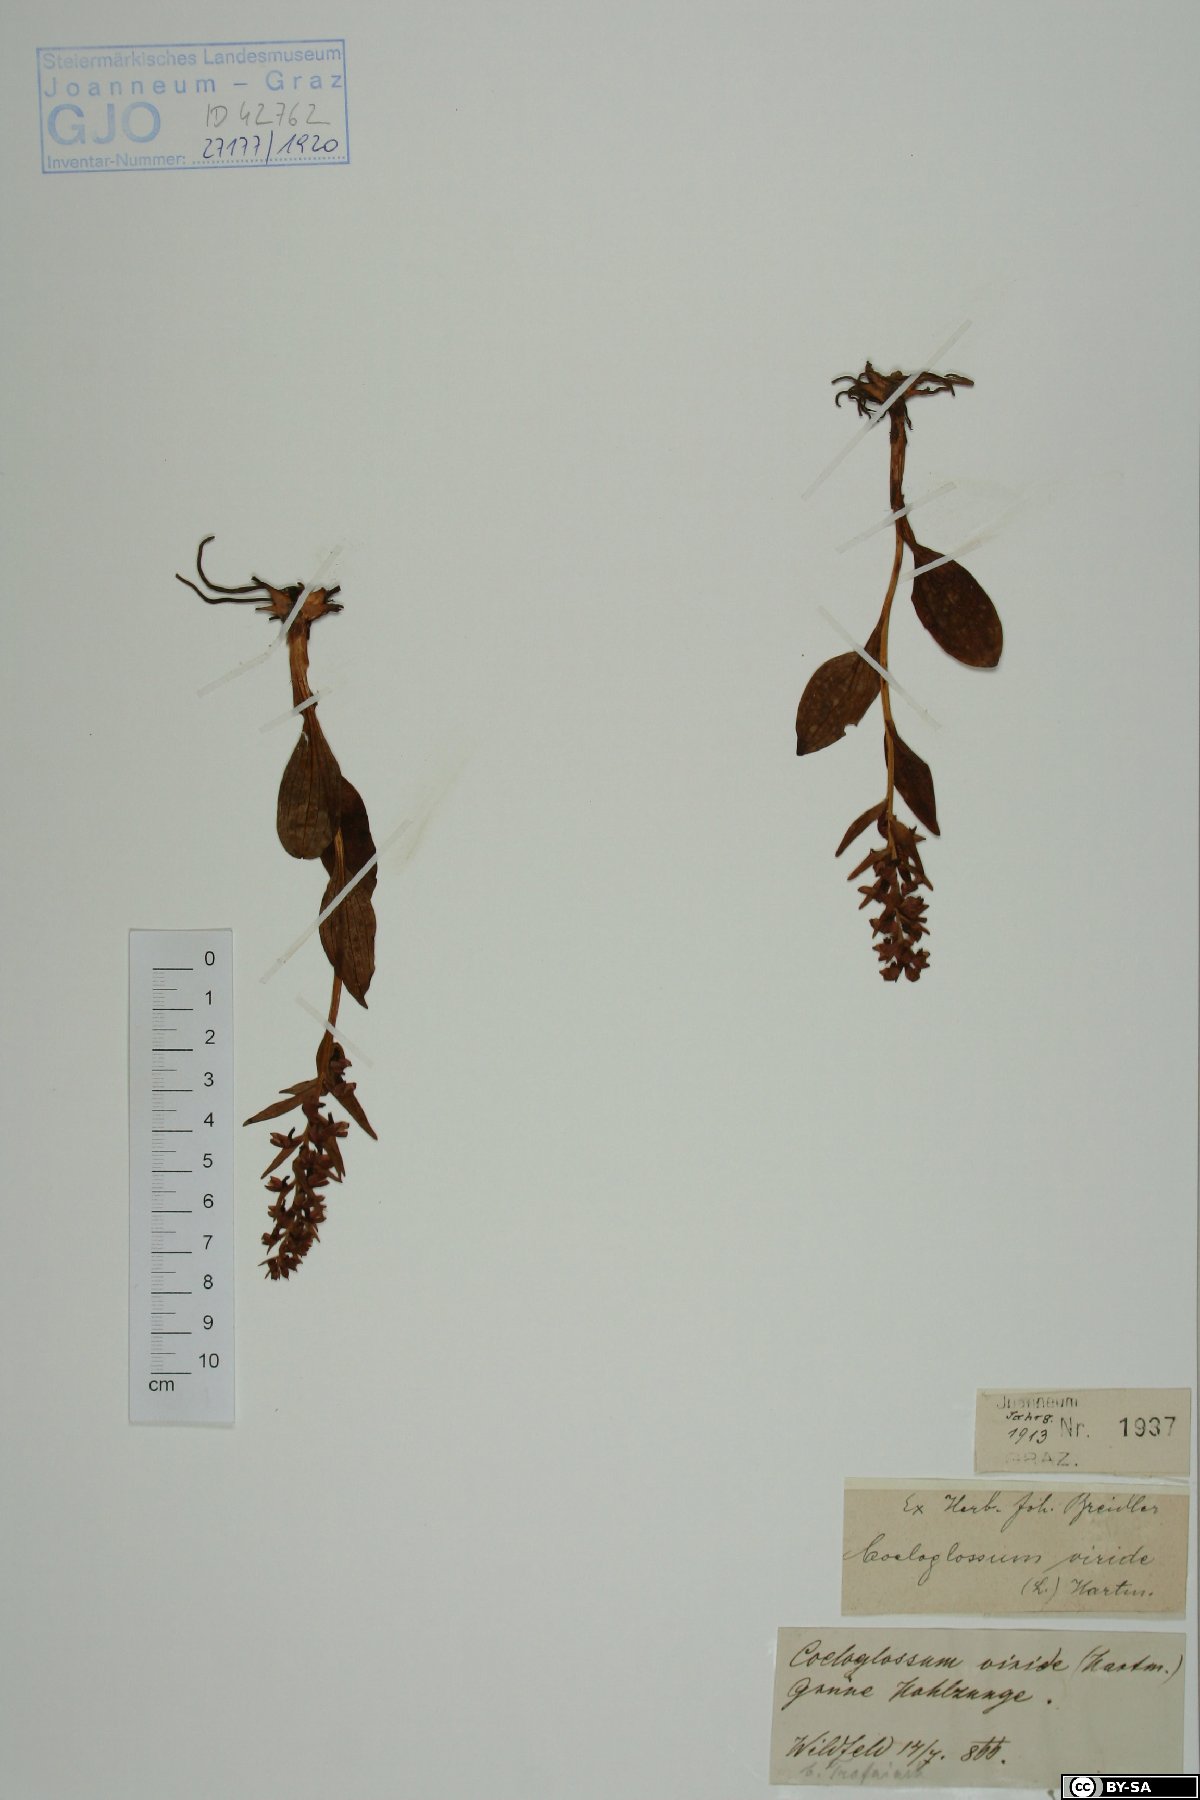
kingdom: Plantae
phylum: Tracheophyta
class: Liliopsida
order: Asparagales
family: Orchidaceae
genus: Dactylorhiza
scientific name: Dactylorhiza viridis
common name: Longbract frog orchid
